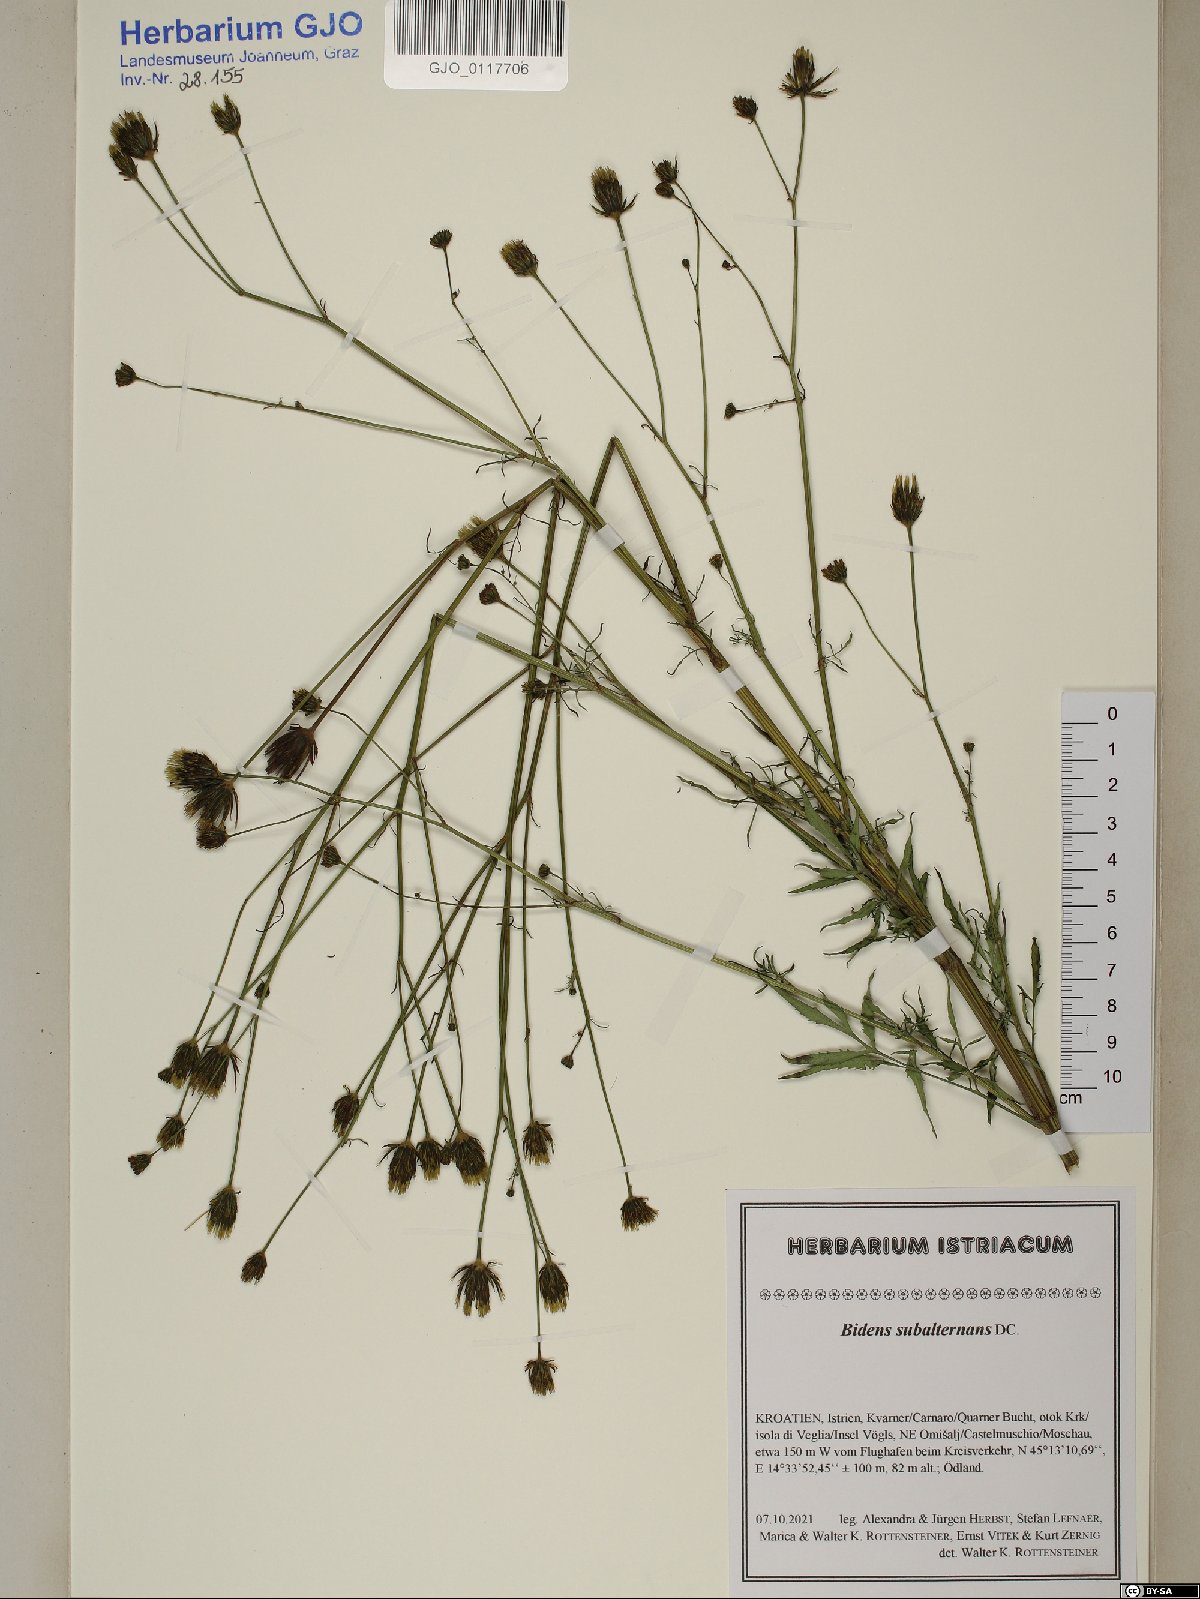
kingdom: Plantae
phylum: Tracheophyta
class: Magnoliopsida
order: Asterales
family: Asteraceae
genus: Bidens
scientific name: Bidens subalternans
